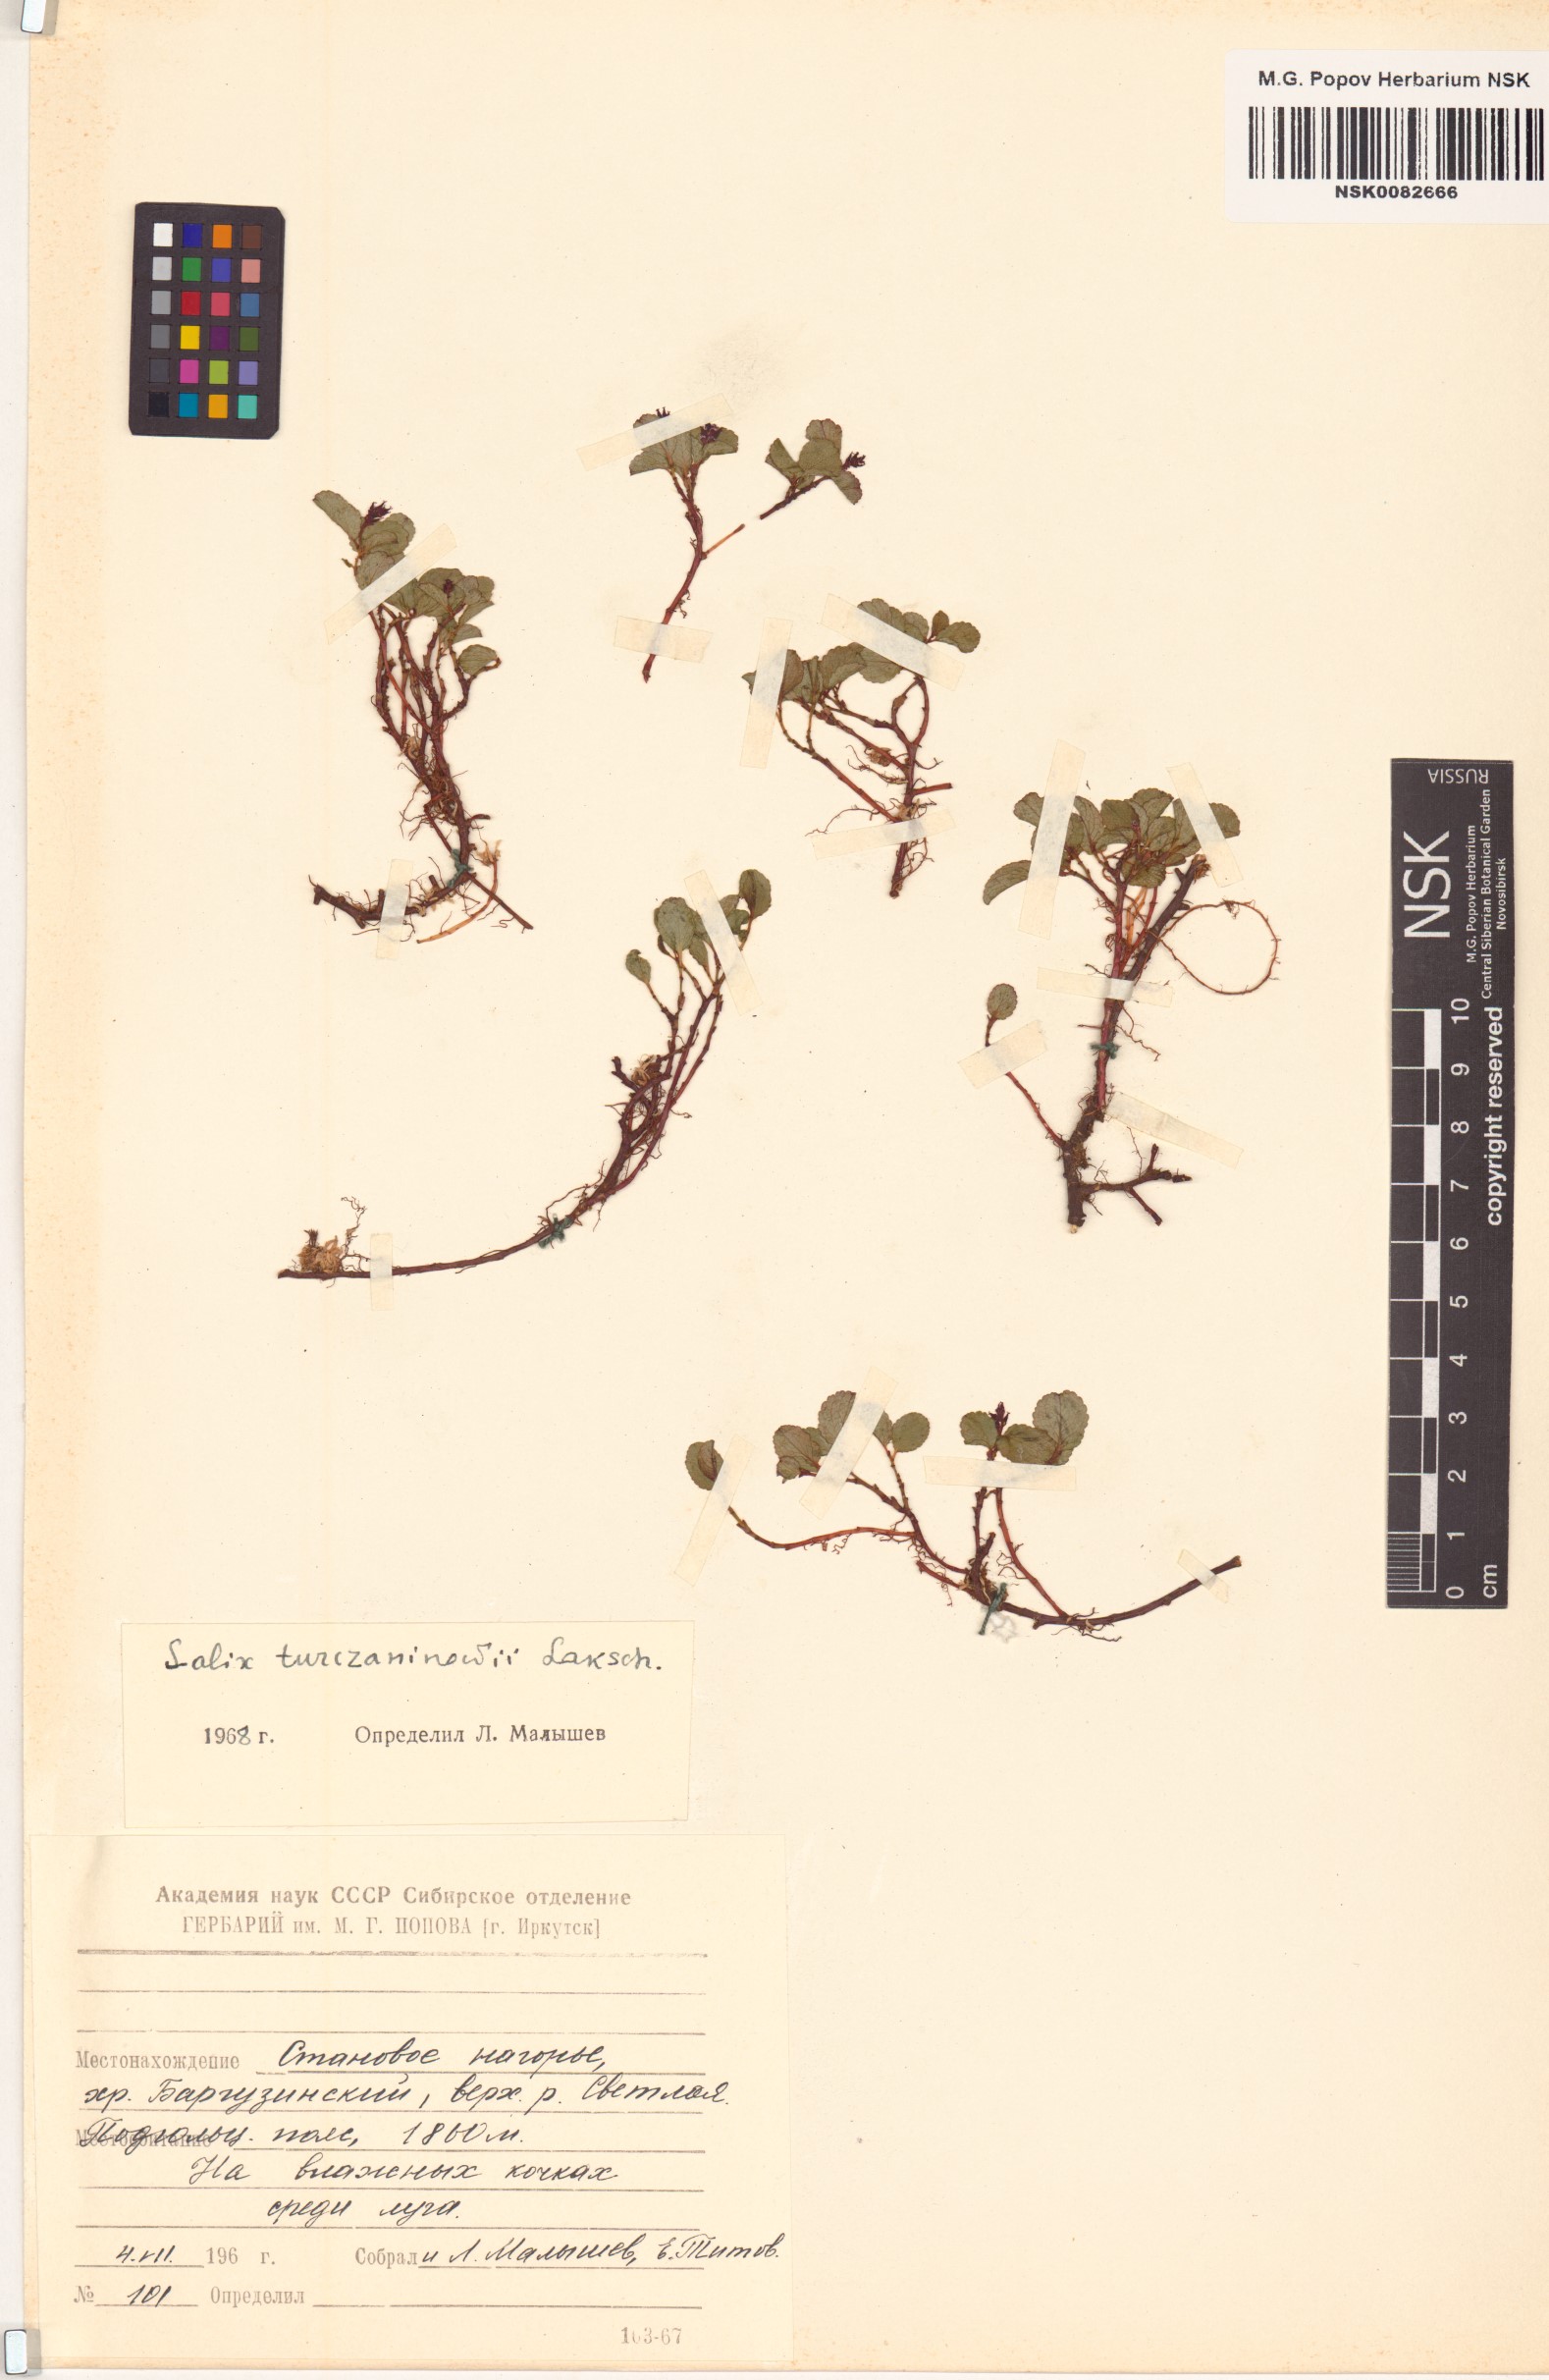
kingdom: Plantae
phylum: Tracheophyta
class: Magnoliopsida
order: Malpighiales
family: Salicaceae
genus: Salix
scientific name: Salix turczaninowii
